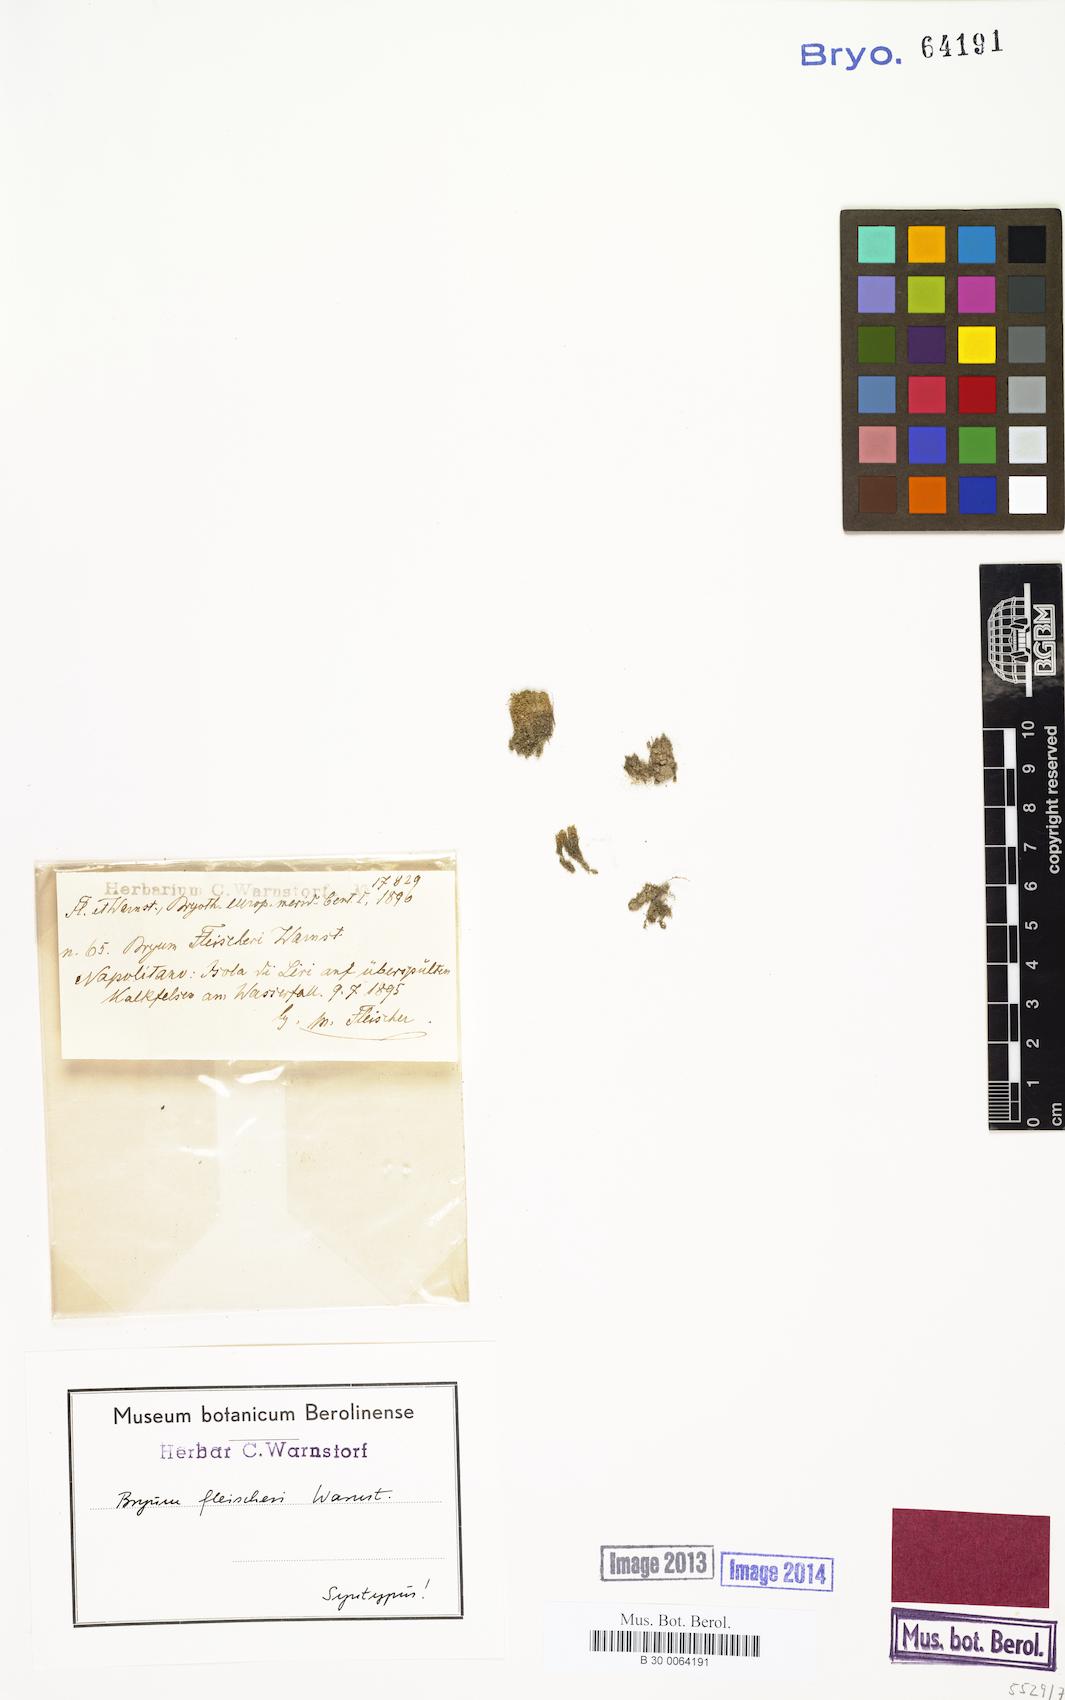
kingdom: Plantae
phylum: Bryophyta
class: Bryopsida
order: Bryales
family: Bryaceae
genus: Imbribryum
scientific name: Imbribryum alpinum
